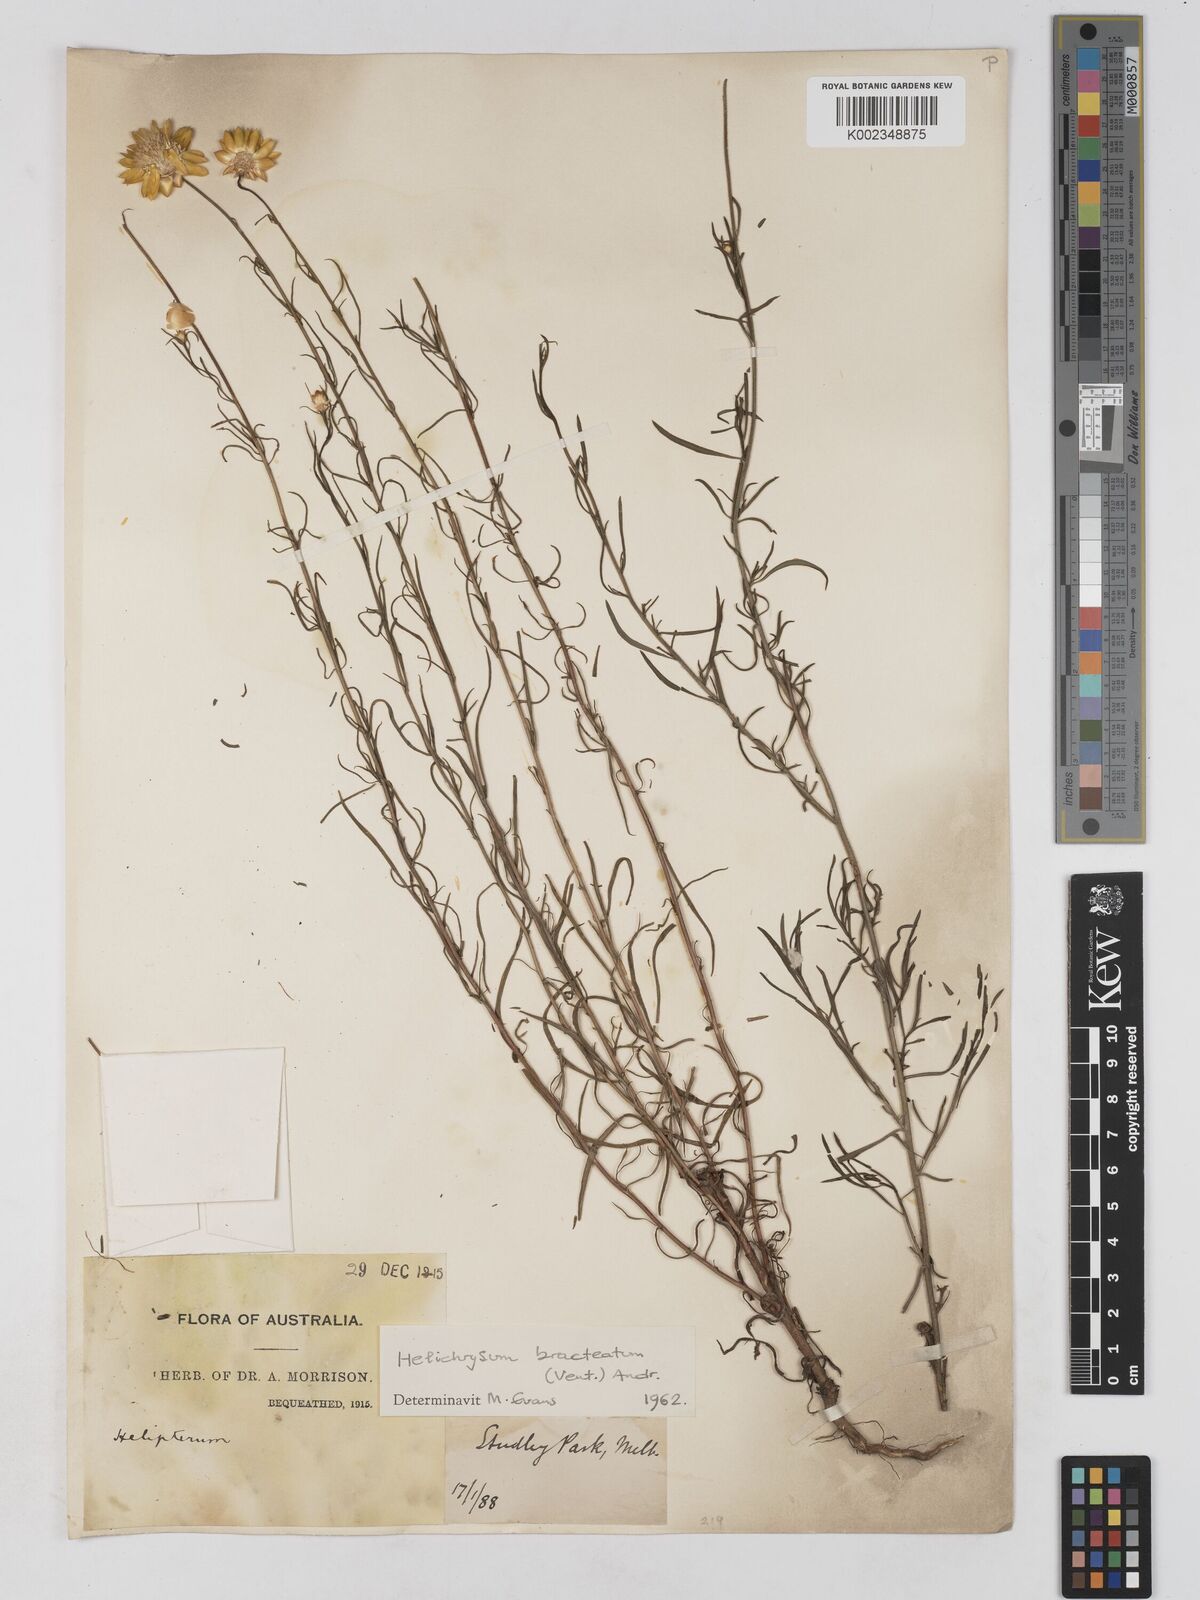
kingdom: Plantae
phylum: Tracheophyta
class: Magnoliopsida
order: Asterales
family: Asteraceae
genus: Xerochrysum
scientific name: Xerochrysum bracteatum
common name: Bracted strawflower
